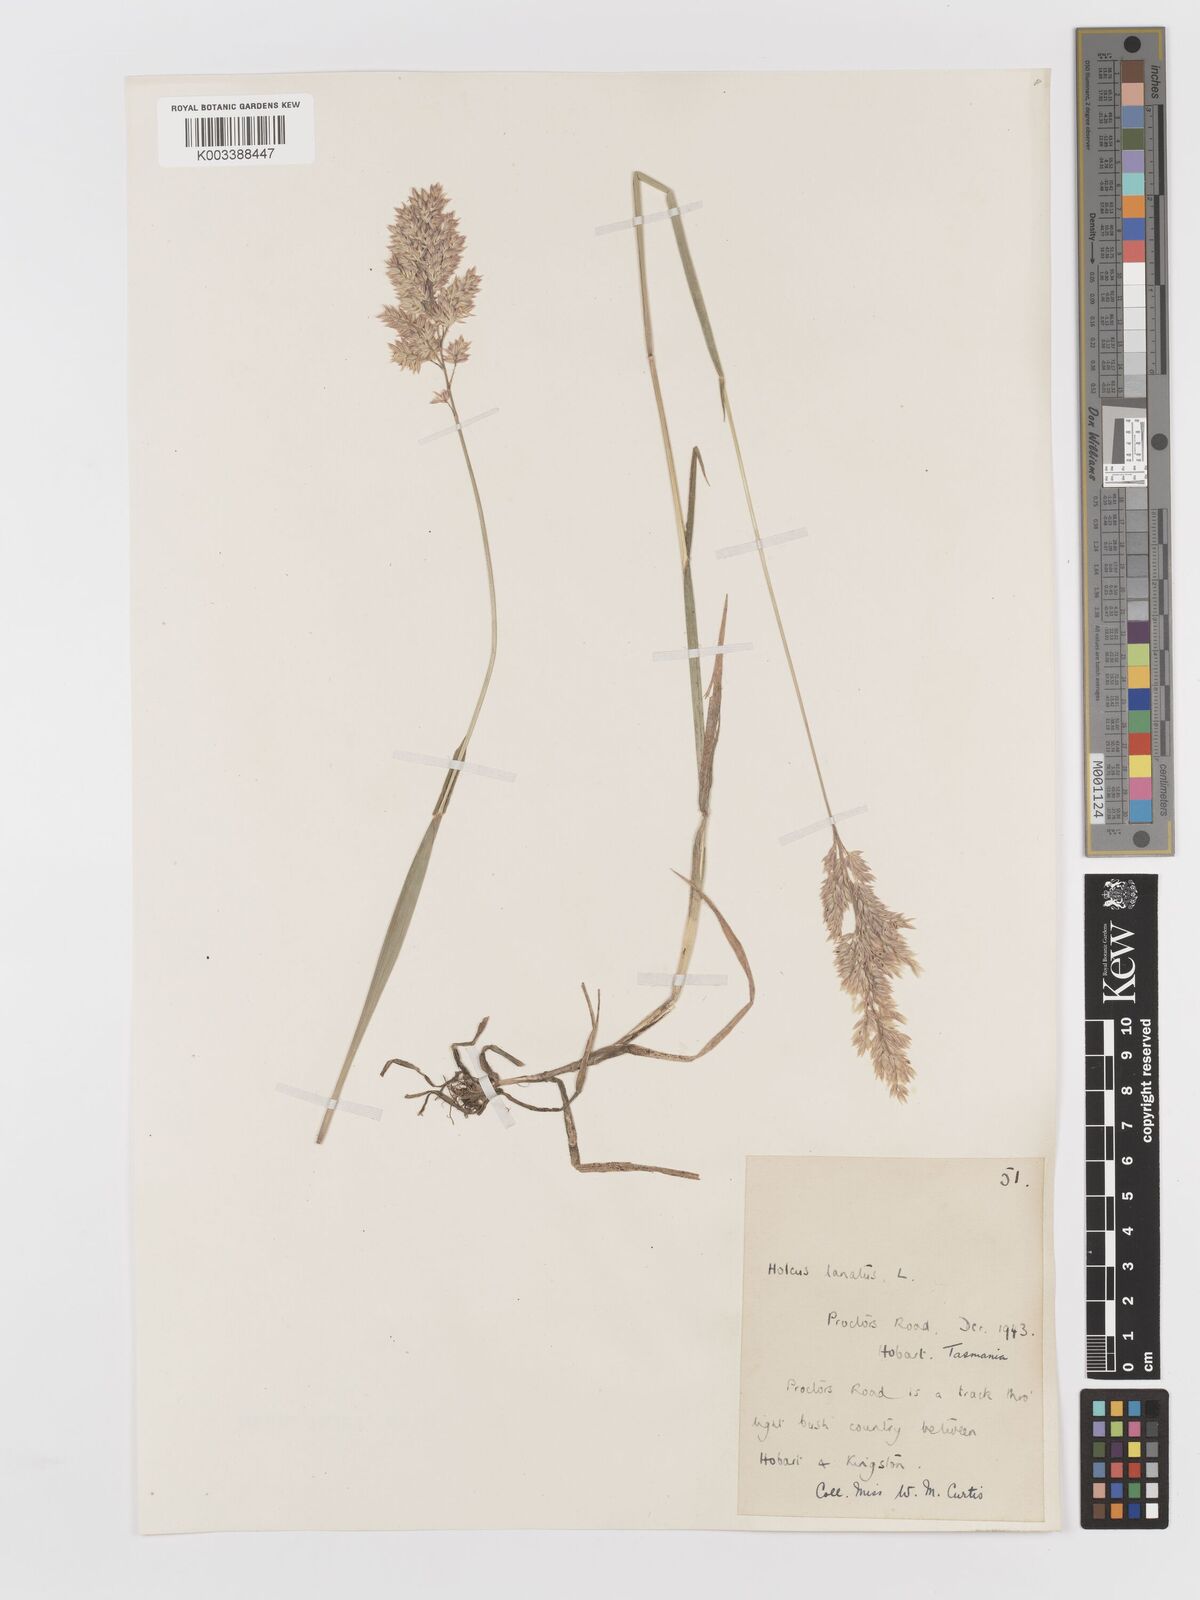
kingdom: Plantae
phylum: Tracheophyta
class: Liliopsida
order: Poales
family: Poaceae
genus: Holcus
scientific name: Holcus lanatus
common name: Yorkshire-fog
